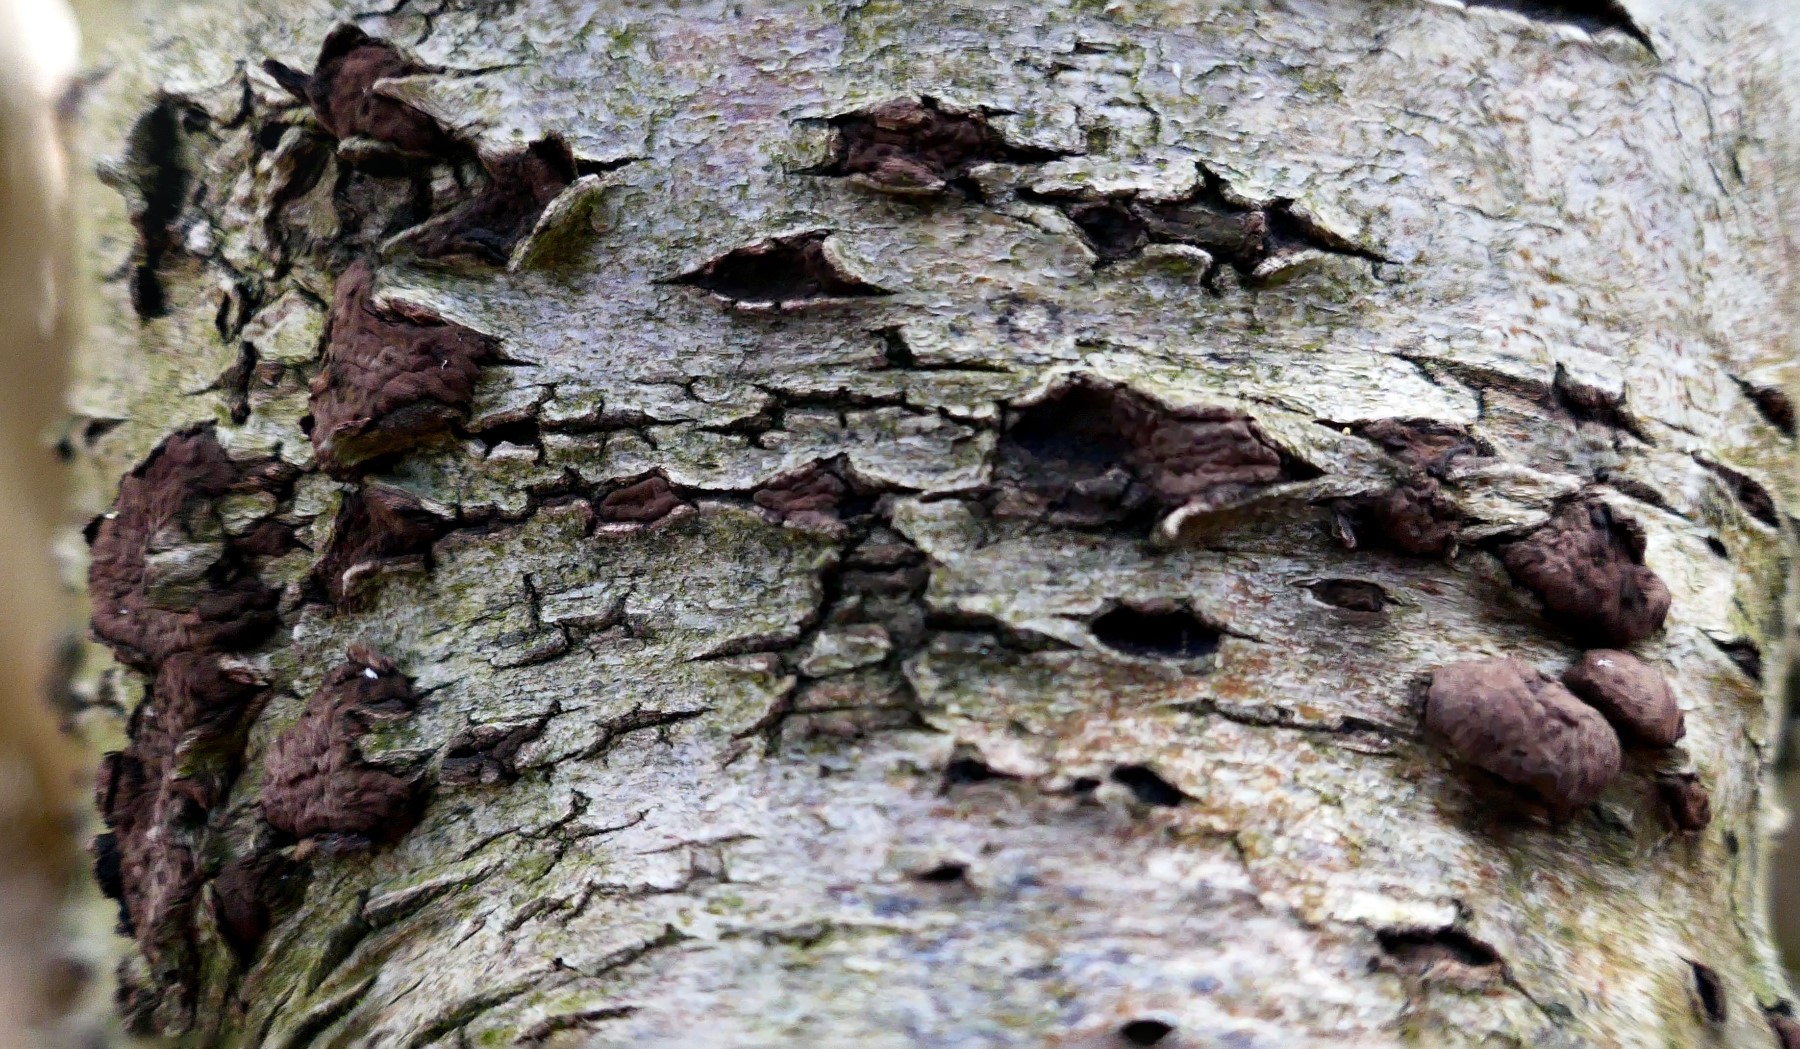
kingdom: Fungi
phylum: Ascomycota
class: Sordariomycetes
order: Xylariales
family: Hypoxylaceae
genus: Jackrogersella
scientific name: Jackrogersella multiformis
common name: foranderlig kulbær
